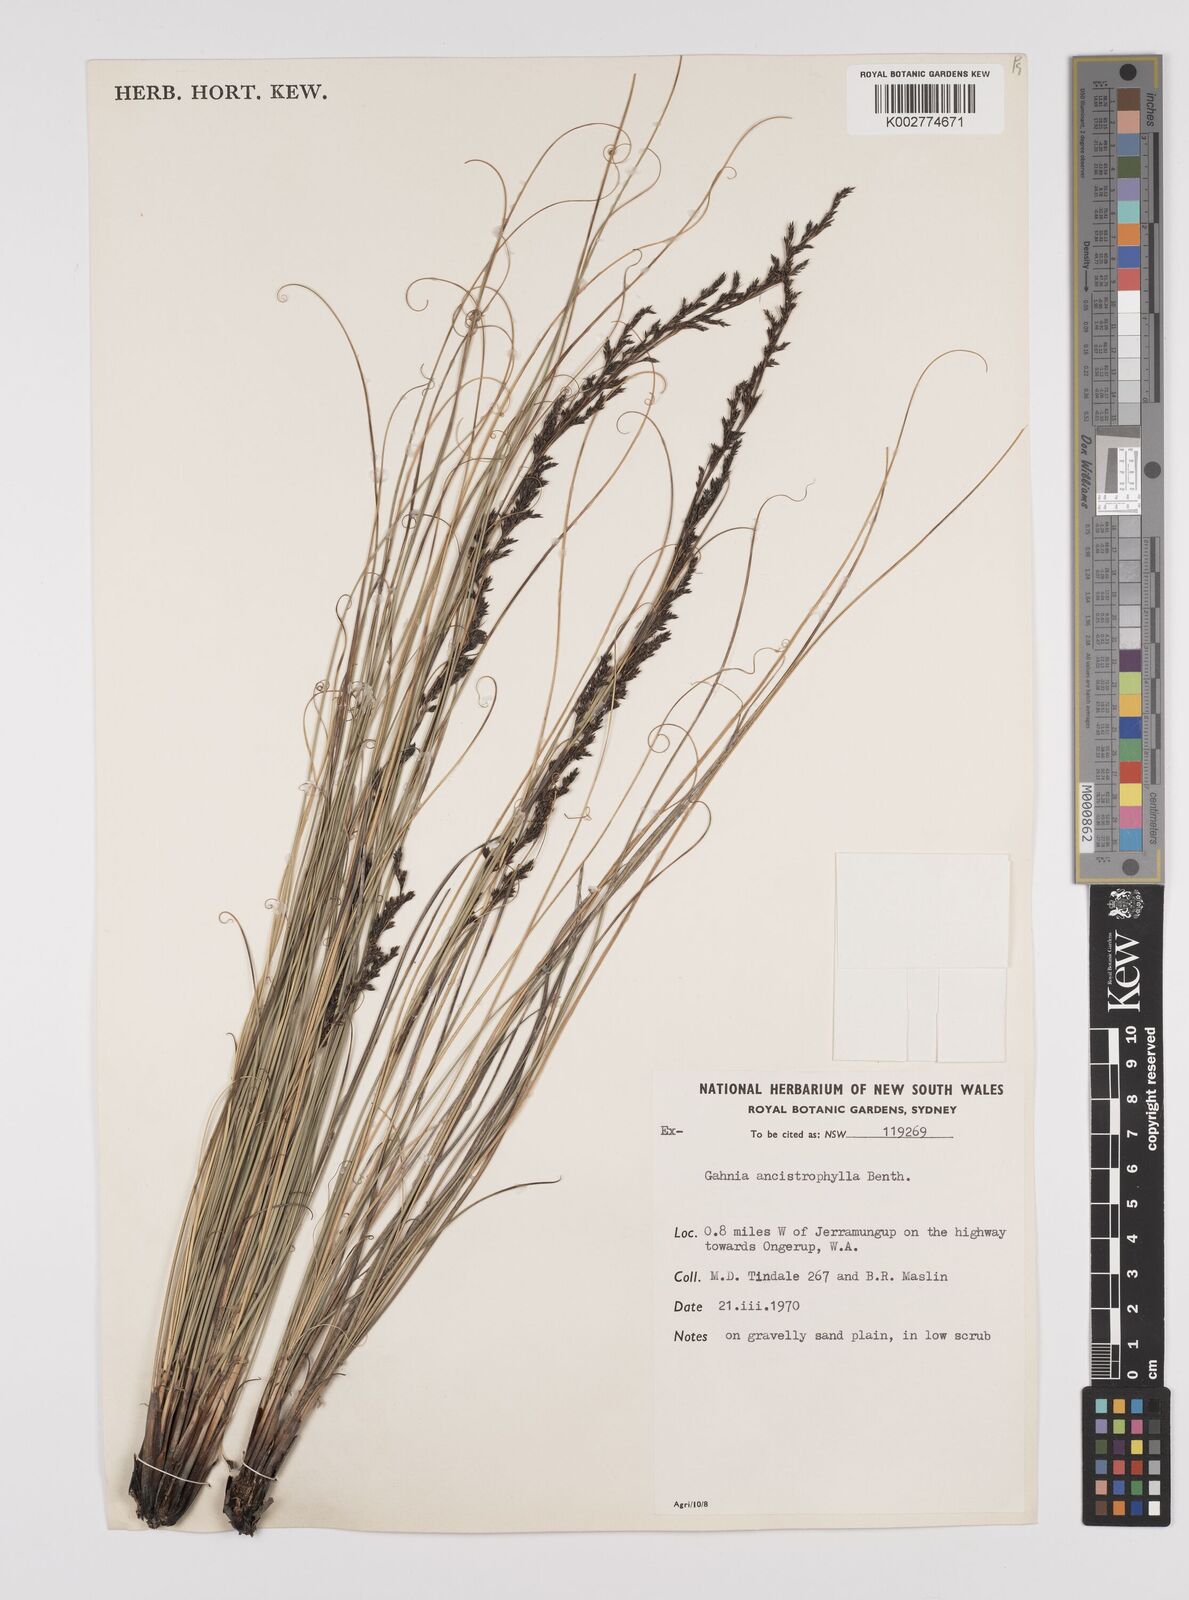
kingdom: Plantae
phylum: Tracheophyta
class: Liliopsida
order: Poales
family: Cyperaceae
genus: Gahnia
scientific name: Gahnia ancistrophylla
